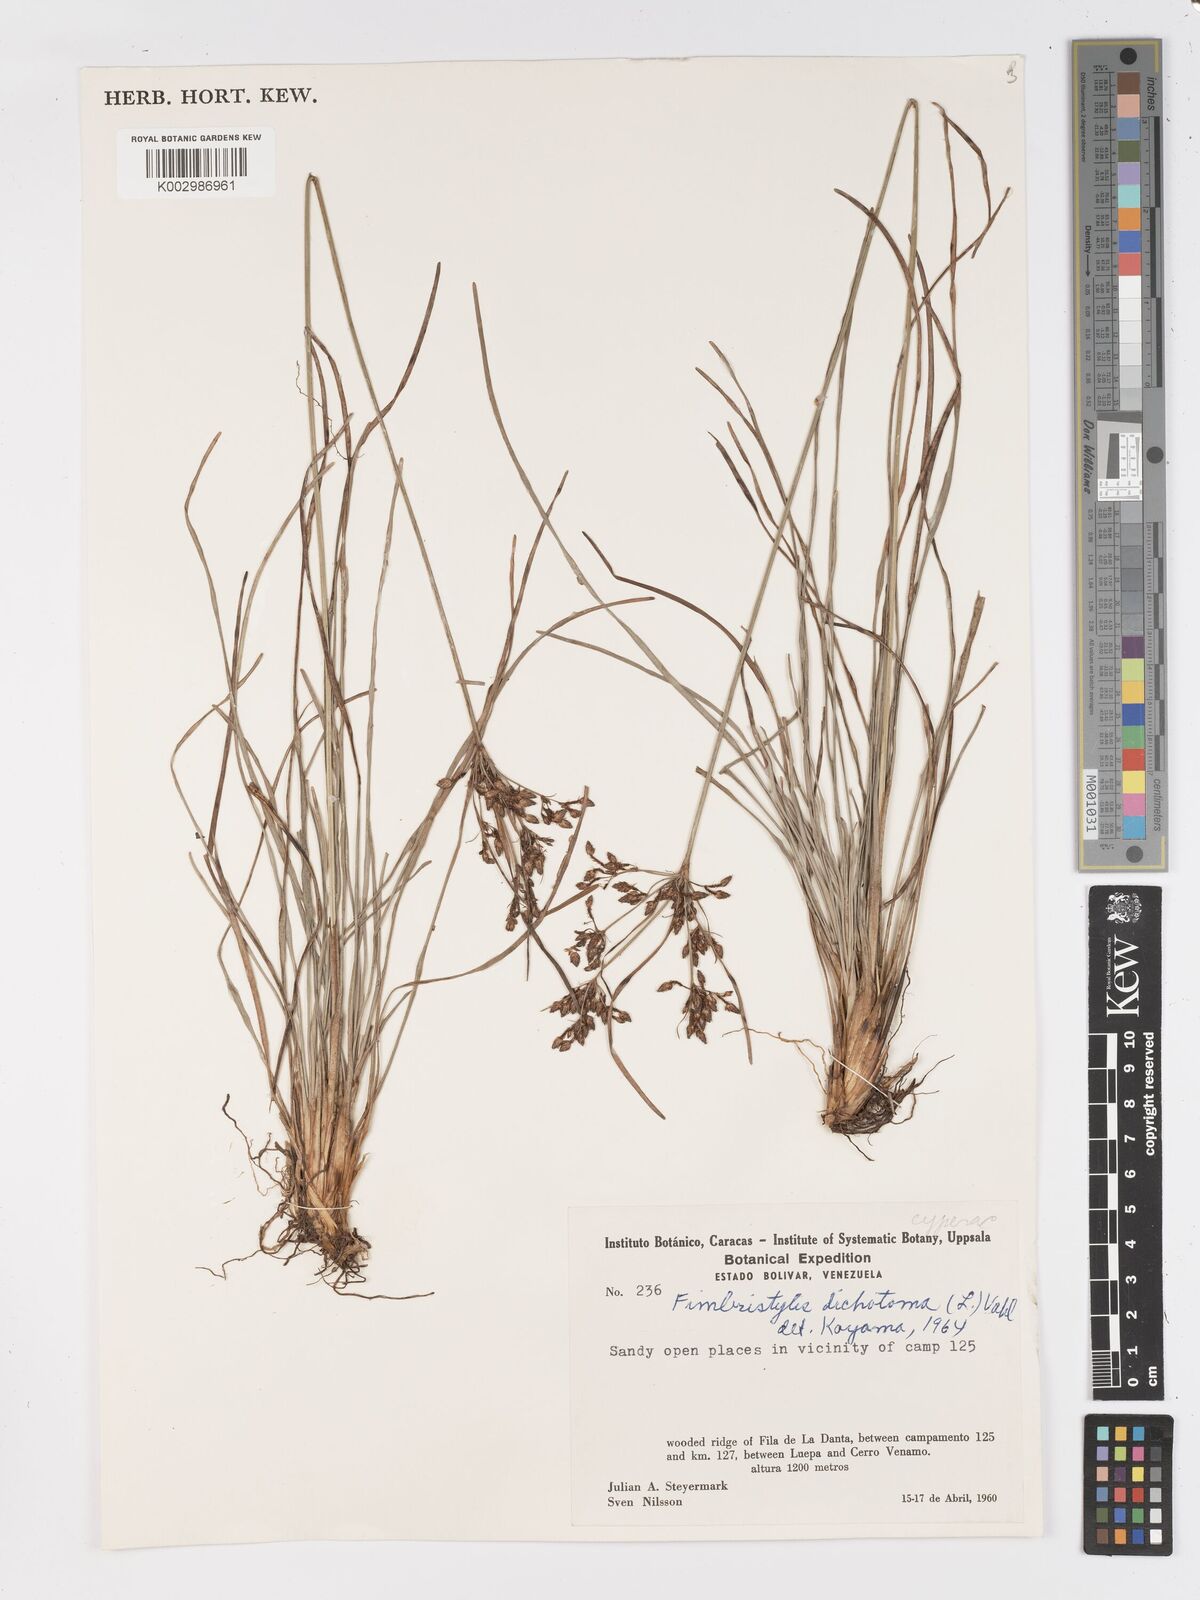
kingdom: Plantae
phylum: Tracheophyta
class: Liliopsida
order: Poales
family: Cyperaceae
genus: Fimbristylis
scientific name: Fimbristylis dichotoma
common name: Forked fimbry
